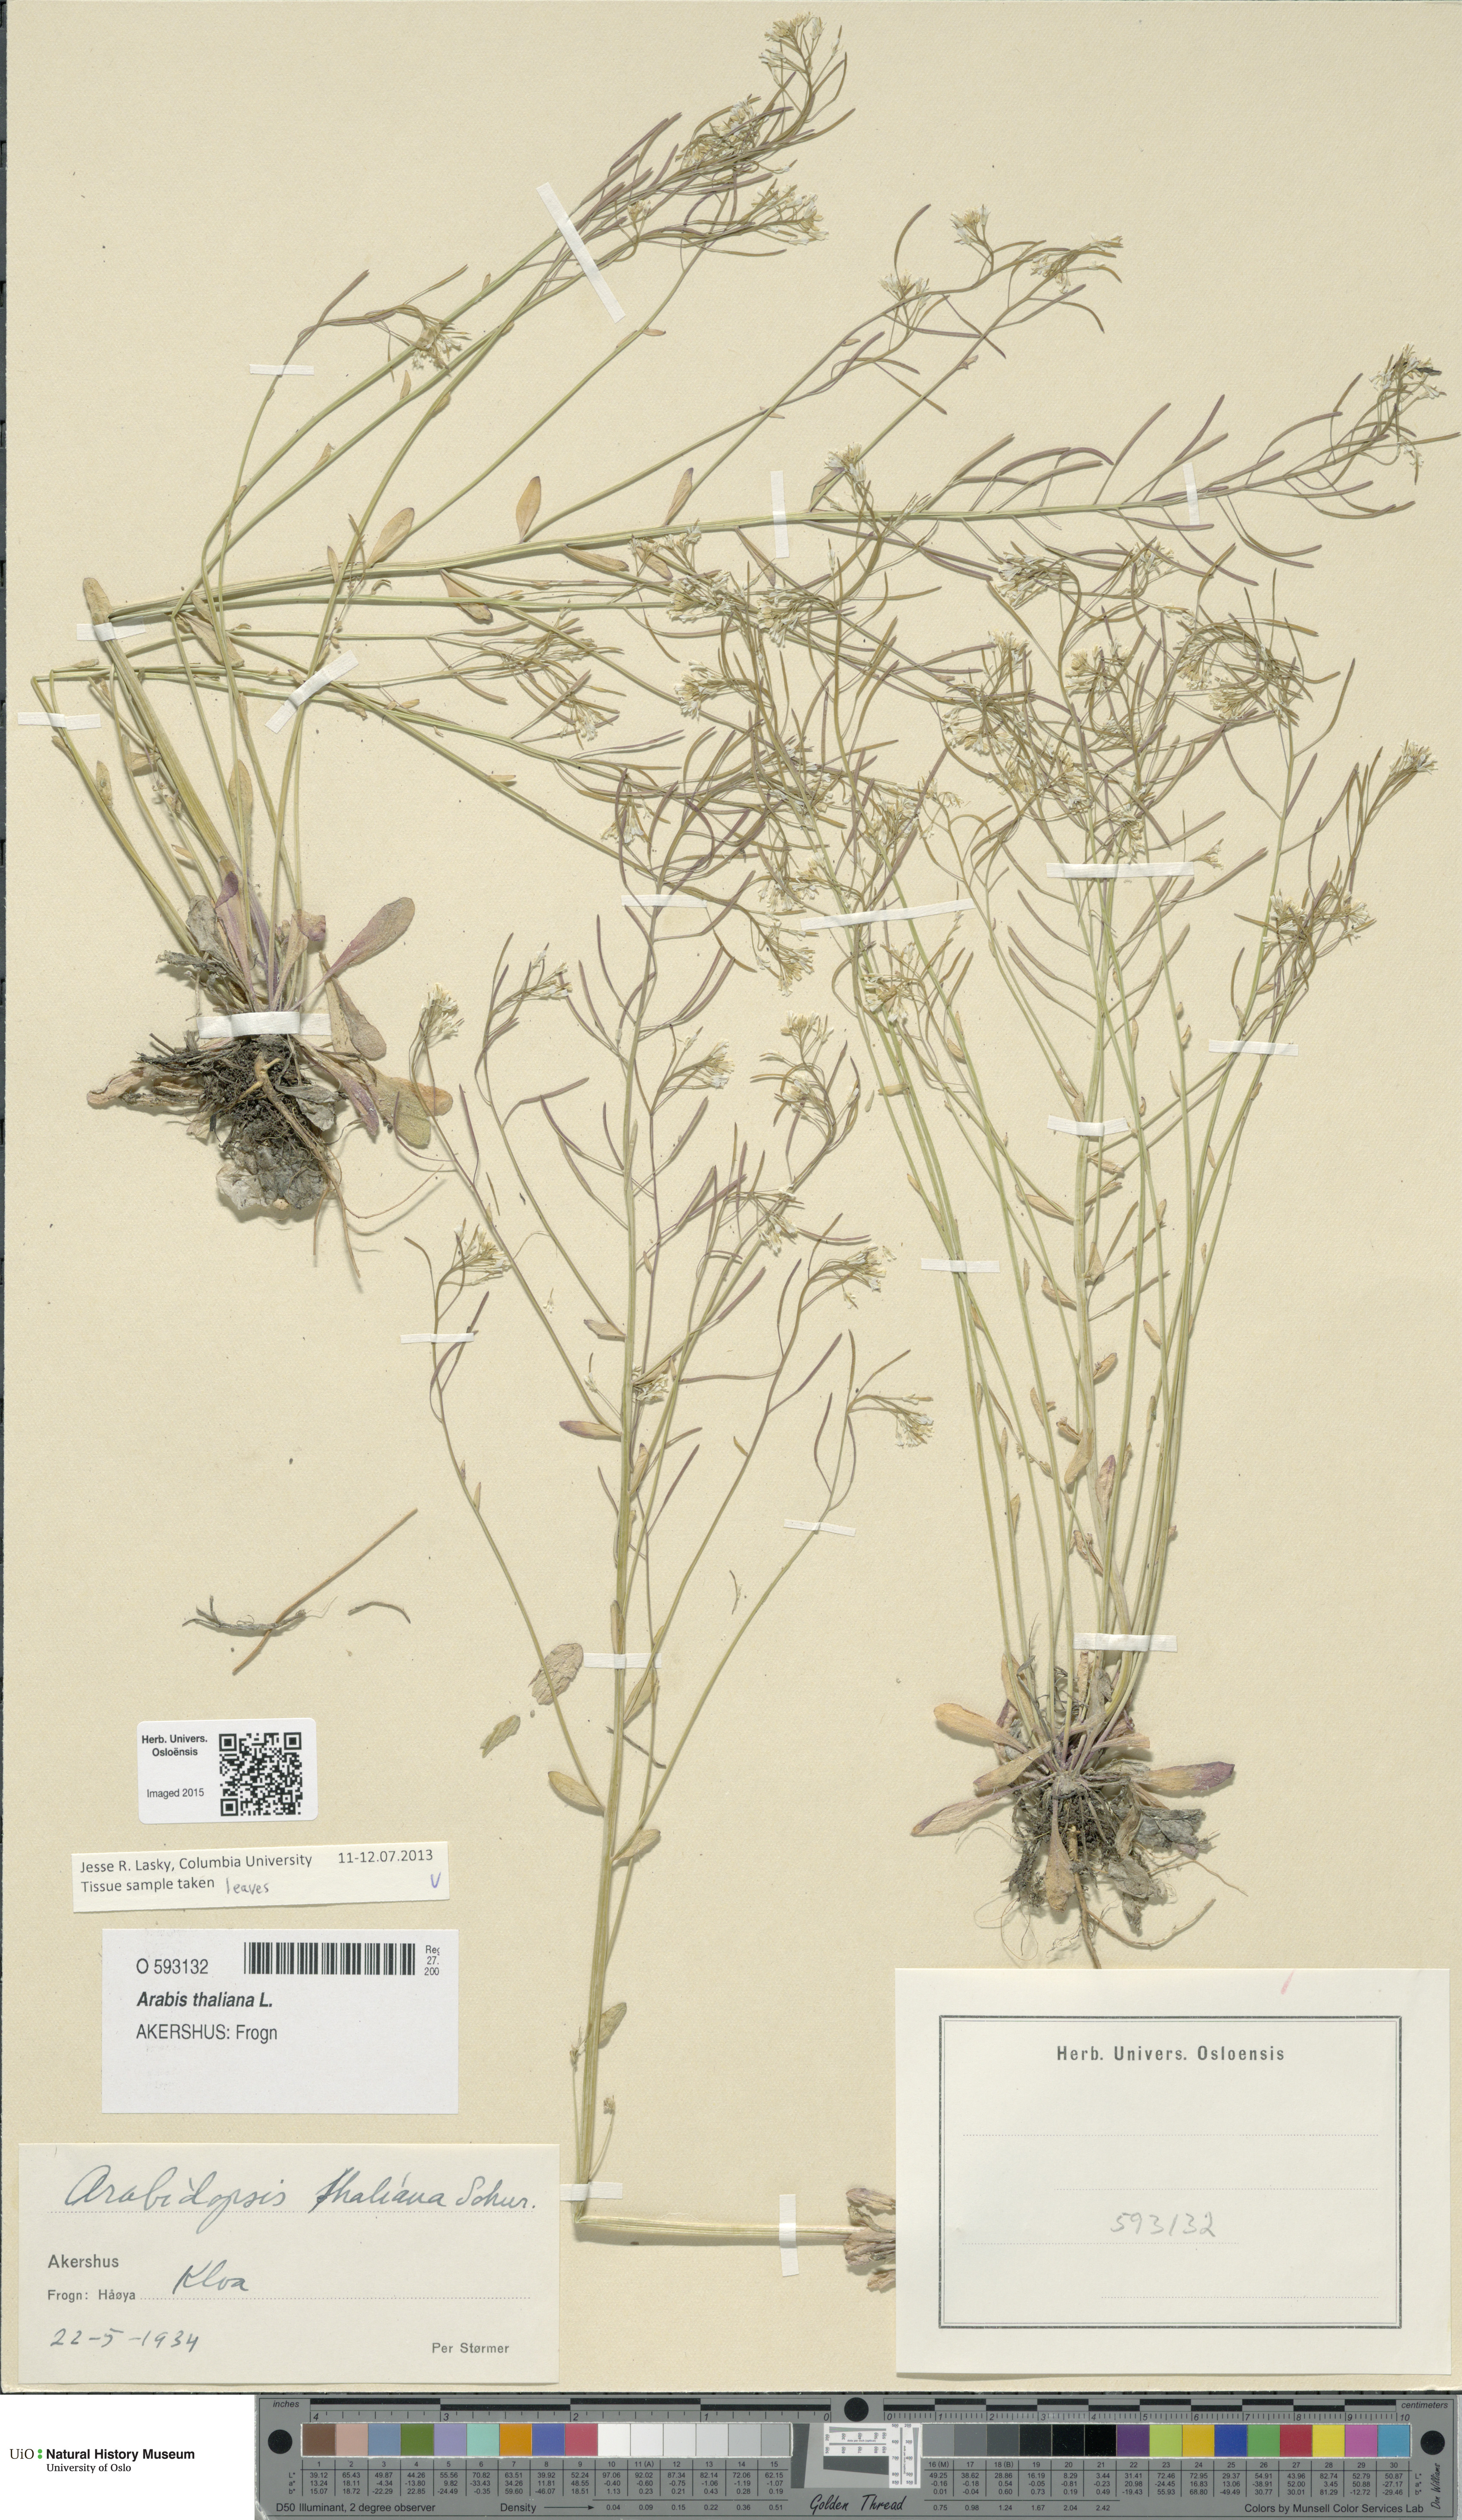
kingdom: Plantae
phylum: Tracheophyta
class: Magnoliopsida
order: Brassicales
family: Brassicaceae
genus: Arabidopsis
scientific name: Arabidopsis thaliana
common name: Thale cress
